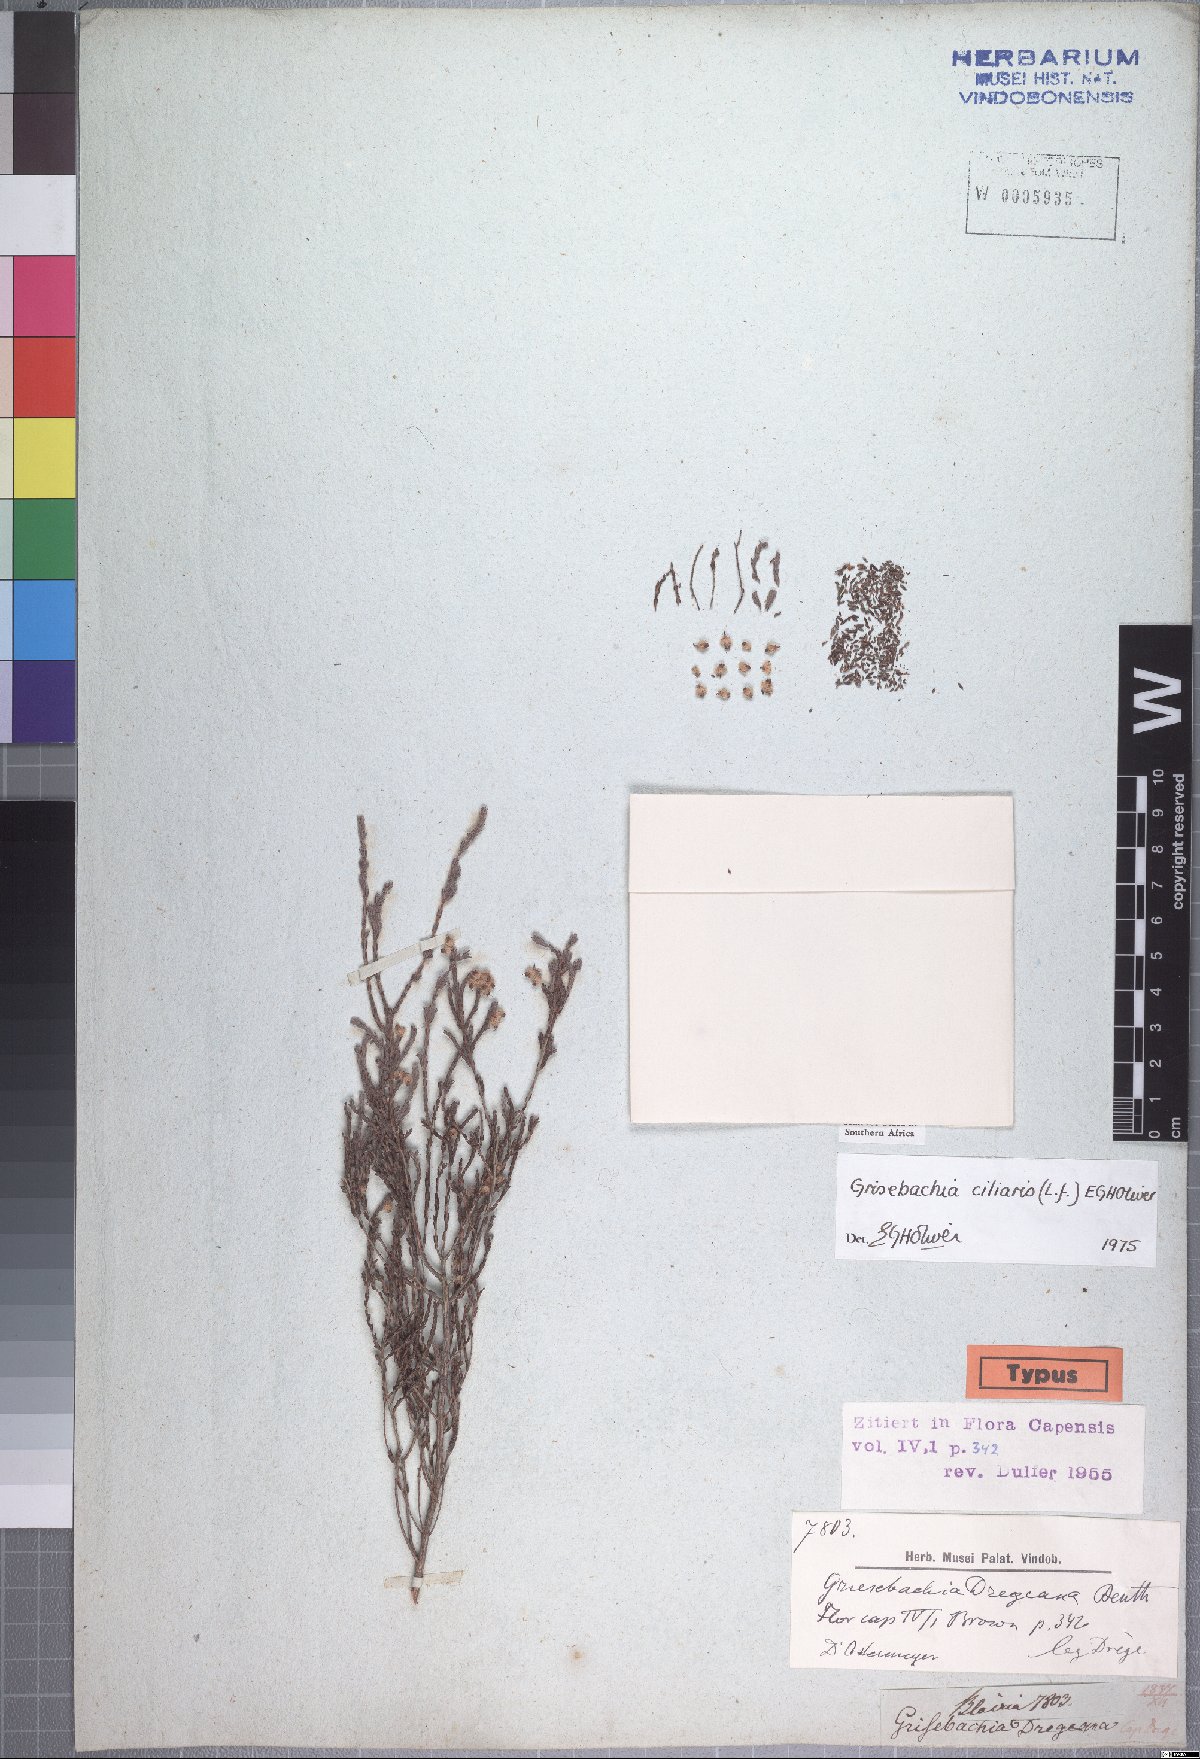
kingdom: Plantae
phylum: Tracheophyta
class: Magnoliopsida
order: Ericales
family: Ericaceae
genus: Erica
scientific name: Erica plumosa
